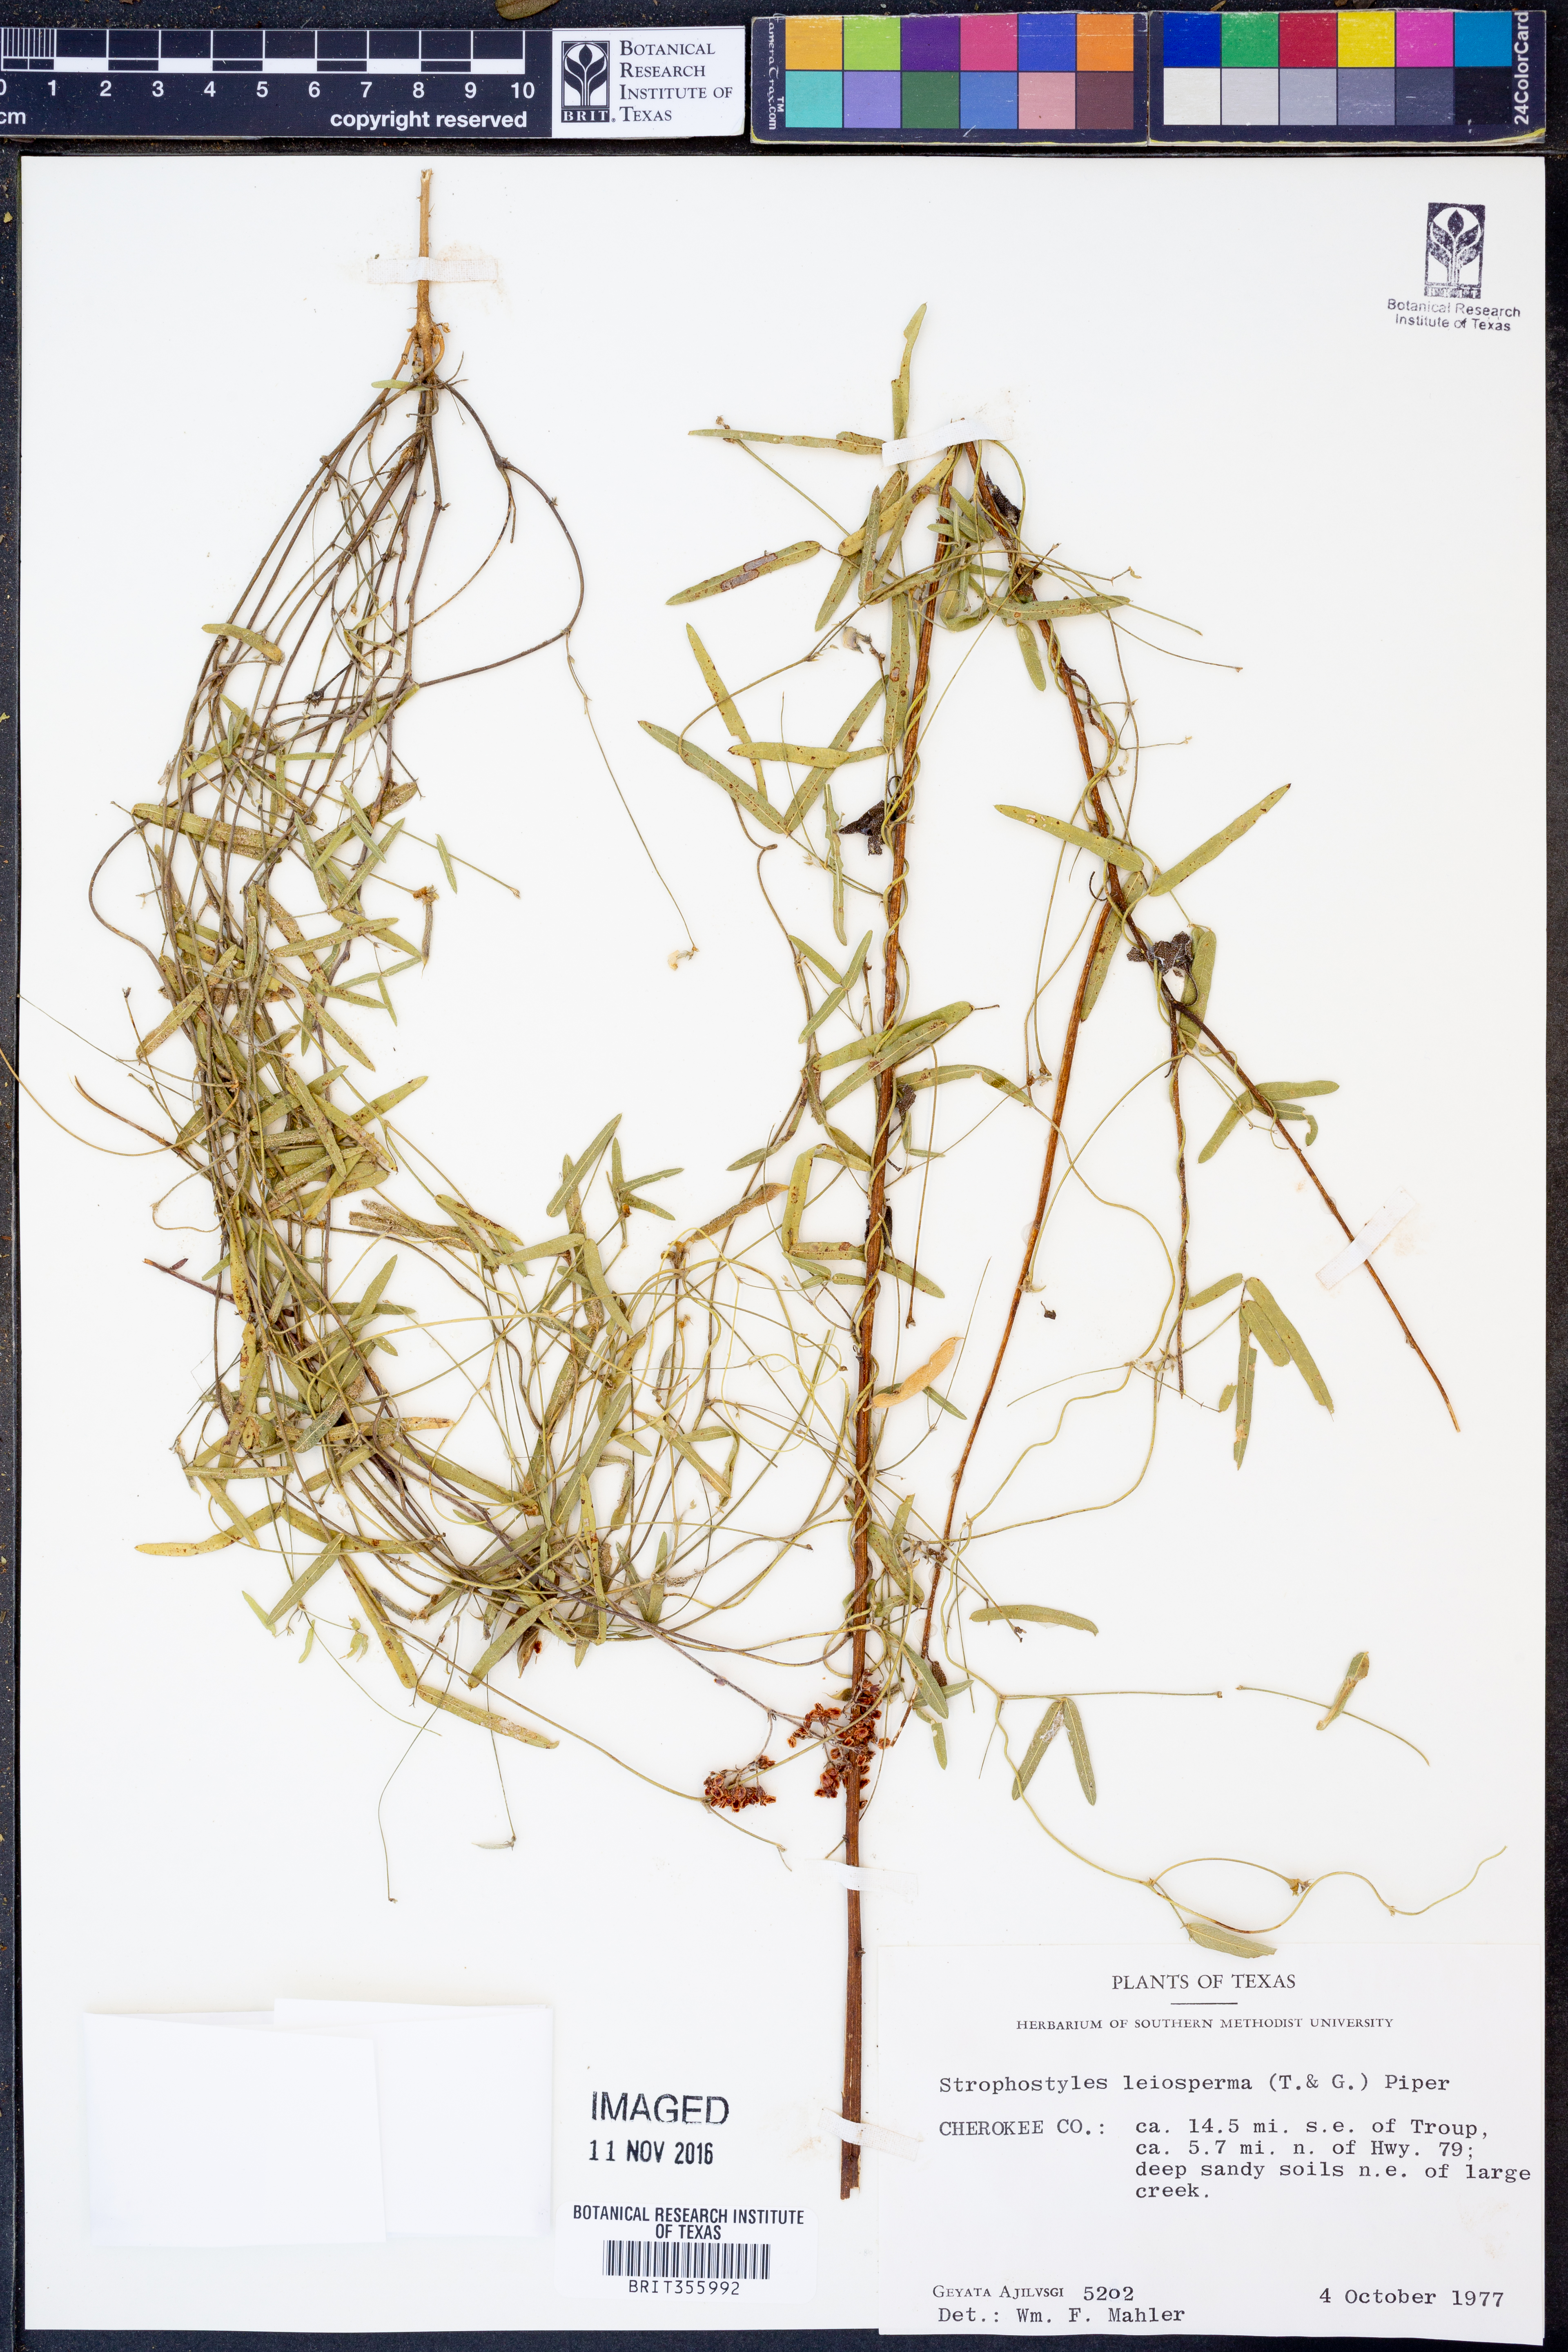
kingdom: Plantae
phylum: Tracheophyta
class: Magnoliopsida
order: Fabales
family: Fabaceae
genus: Strophostyles
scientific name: Strophostyles leiosperma
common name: Smooth-seed wild bean
